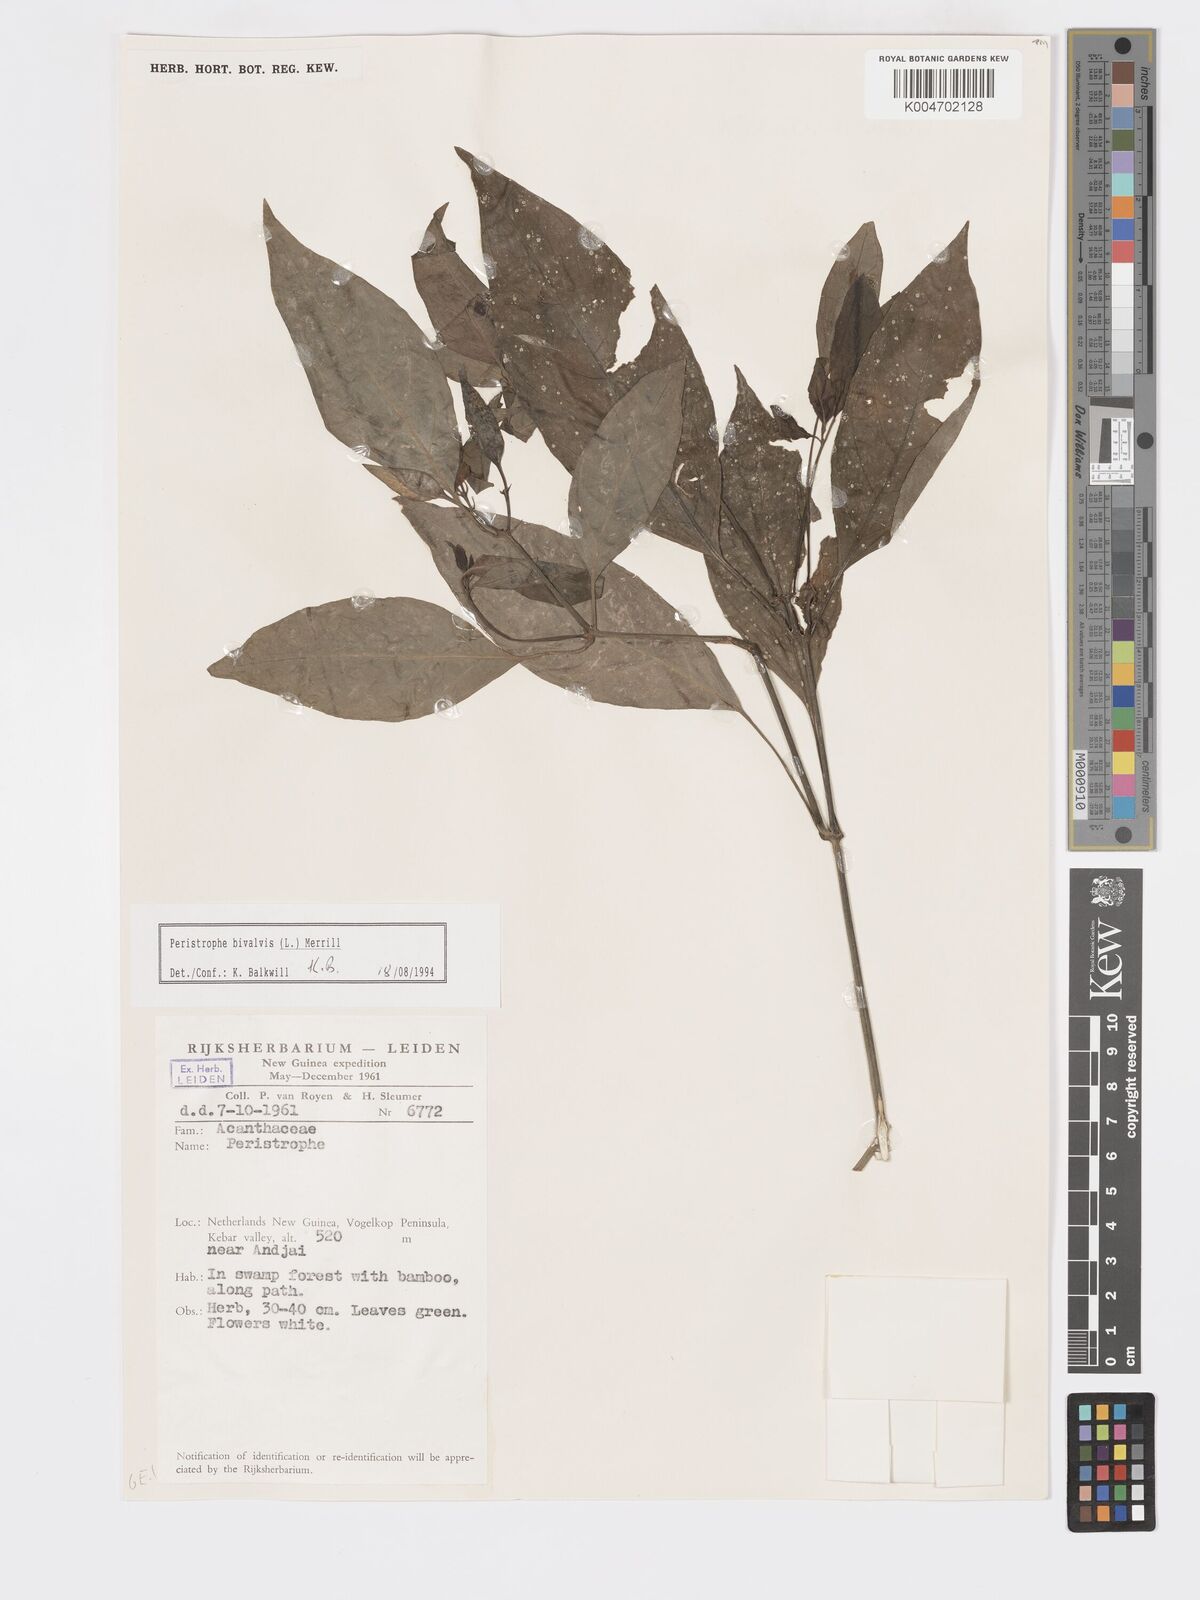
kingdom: Plantae
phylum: Tracheophyta
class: Magnoliopsida
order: Lamiales
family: Acanthaceae
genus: Dicliptera
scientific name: Dicliptera
